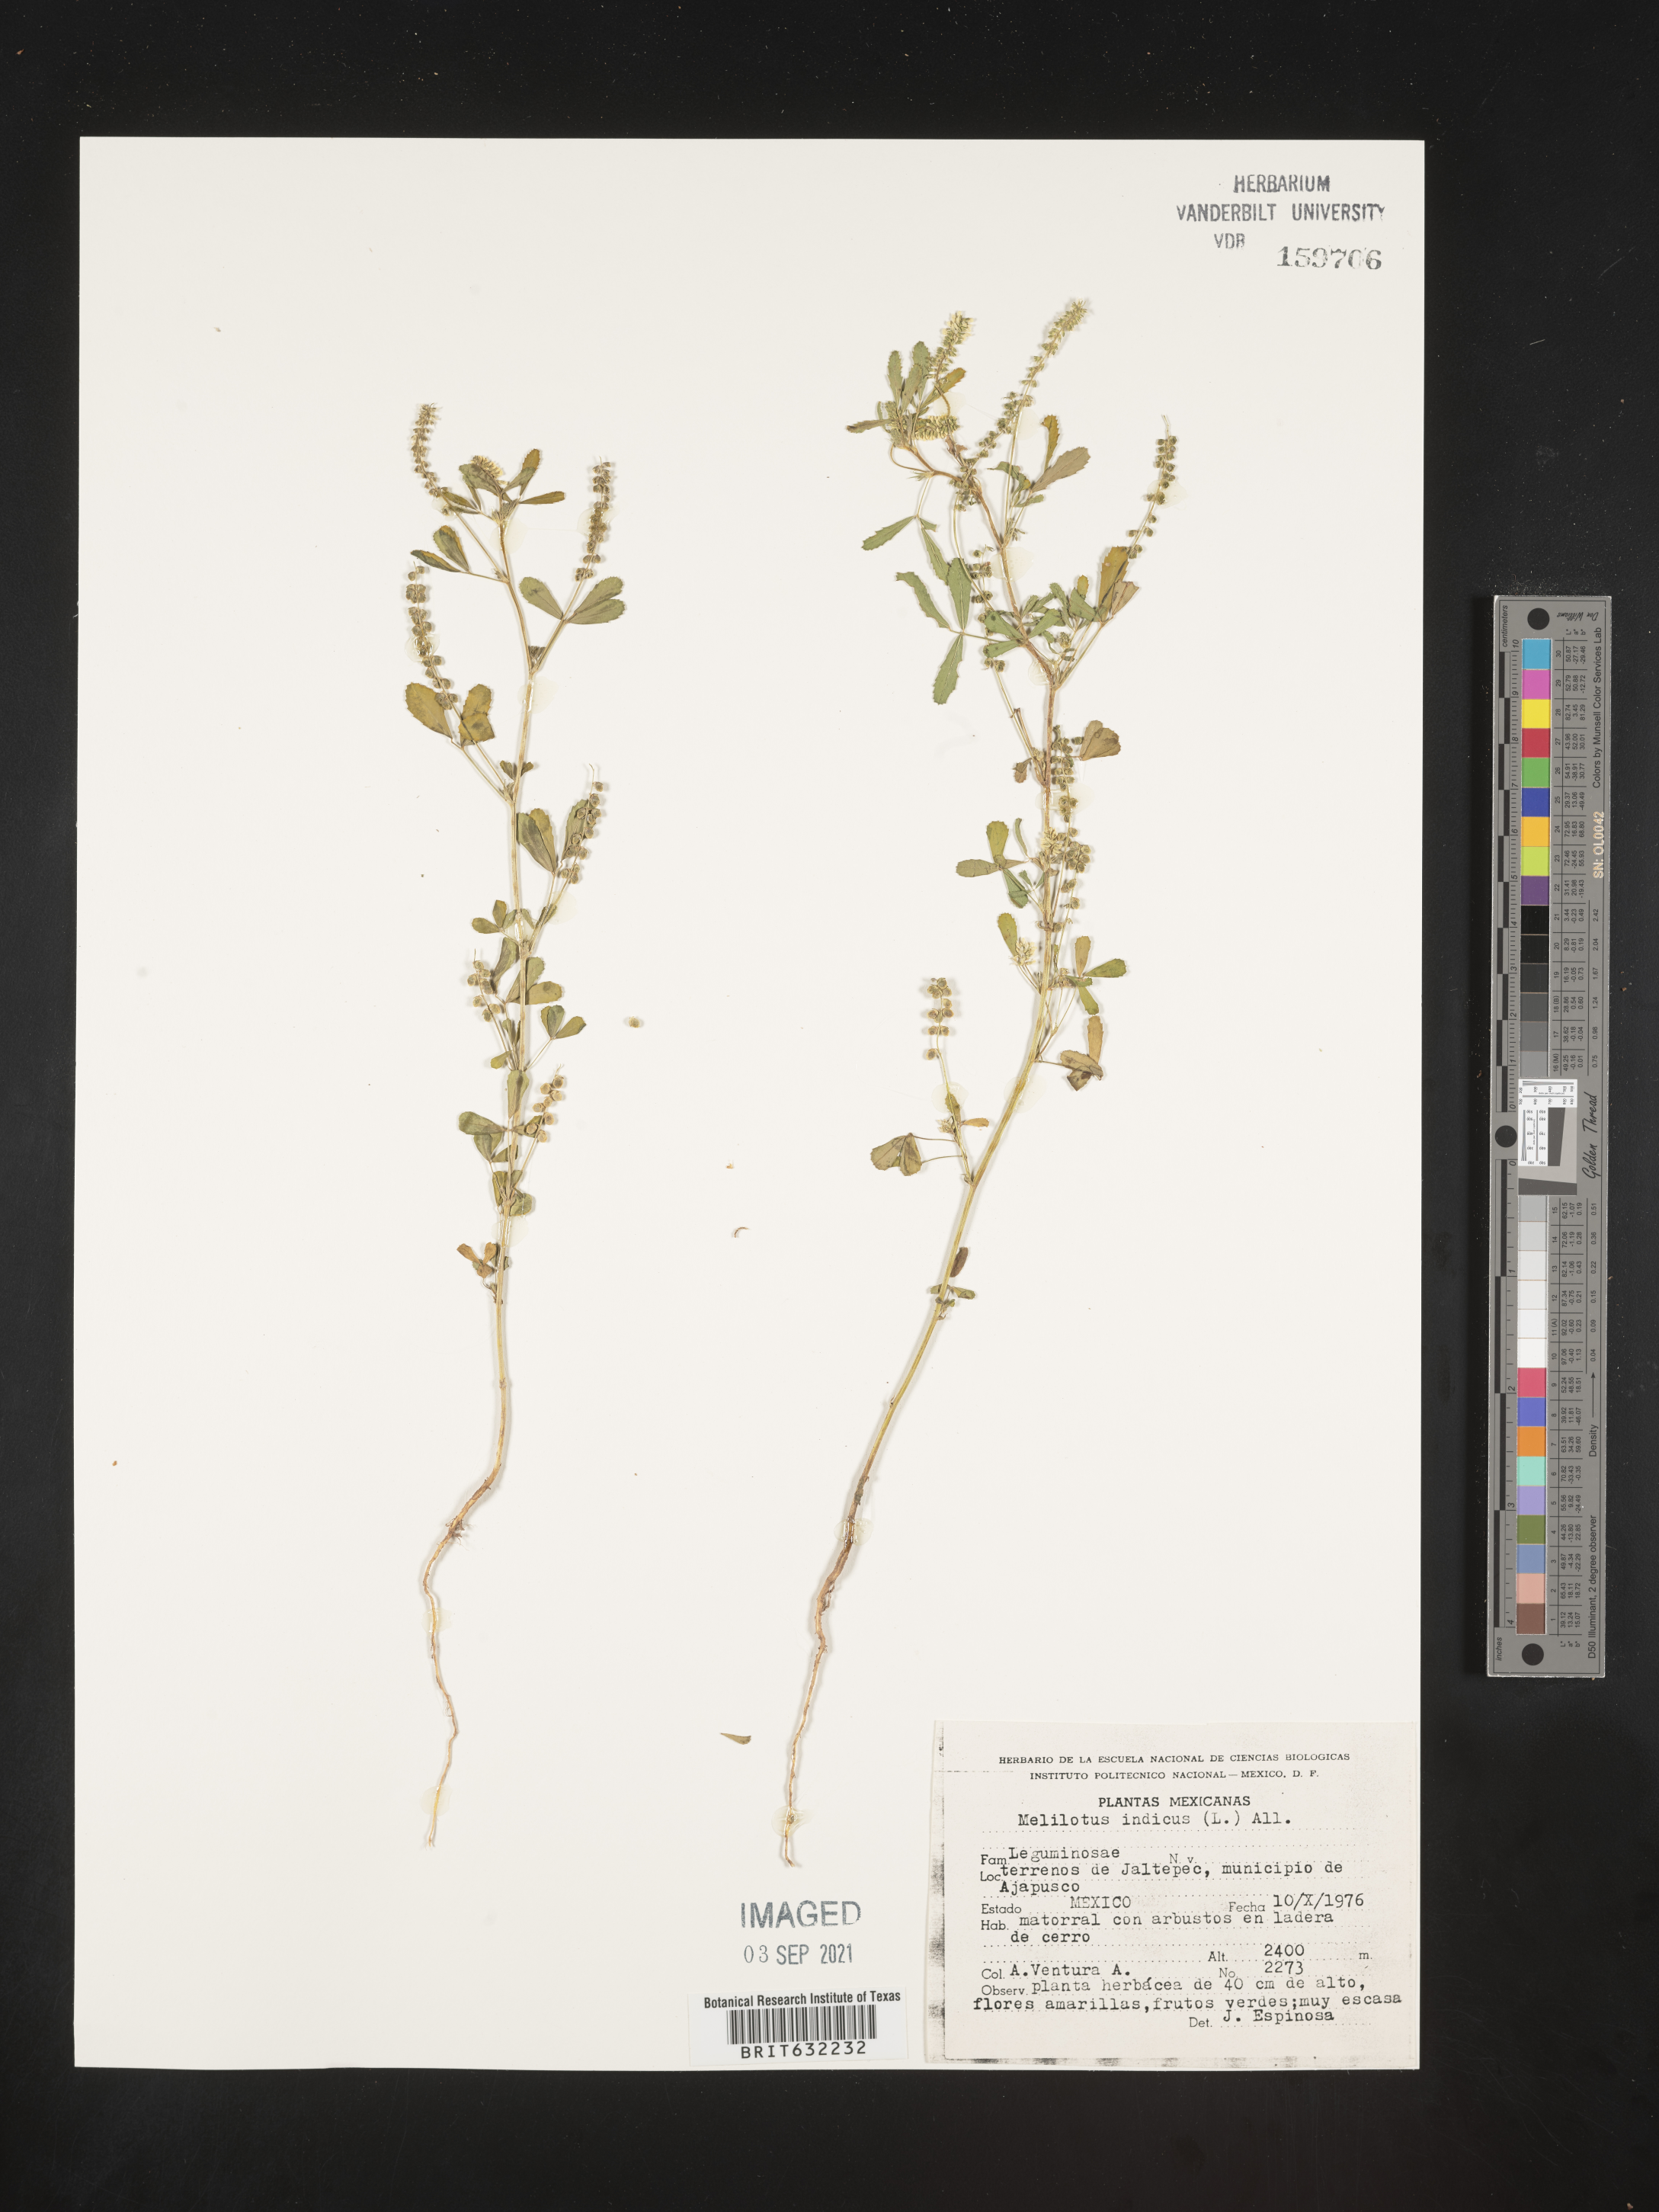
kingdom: Plantae
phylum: Tracheophyta
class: Magnoliopsida
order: Fabales
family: Fabaceae
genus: Melilotus
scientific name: Melilotus
